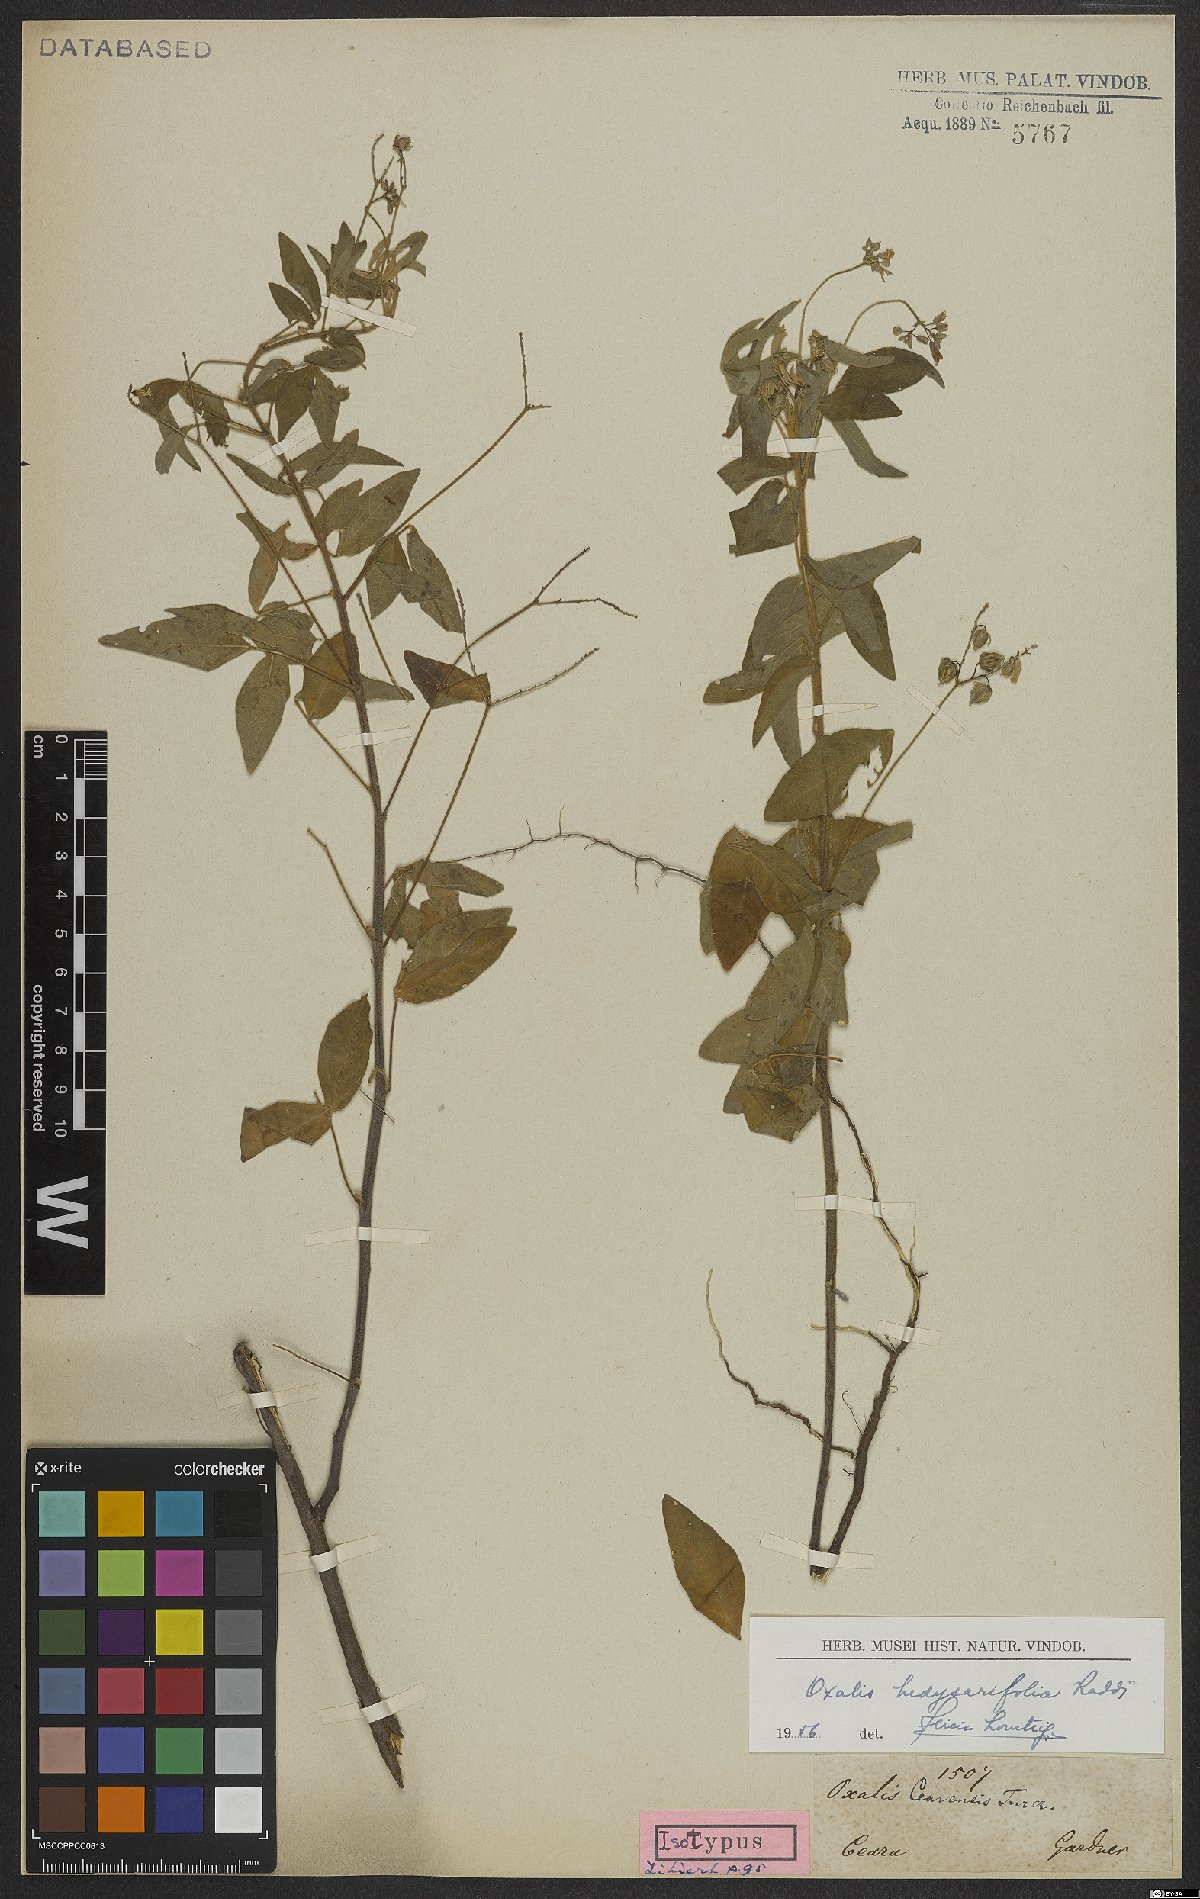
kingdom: Plantae
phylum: Tracheophyta
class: Magnoliopsida
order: Oxalidales
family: Oxalidaceae
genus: Oxalis
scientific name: Oxalis frutescens
